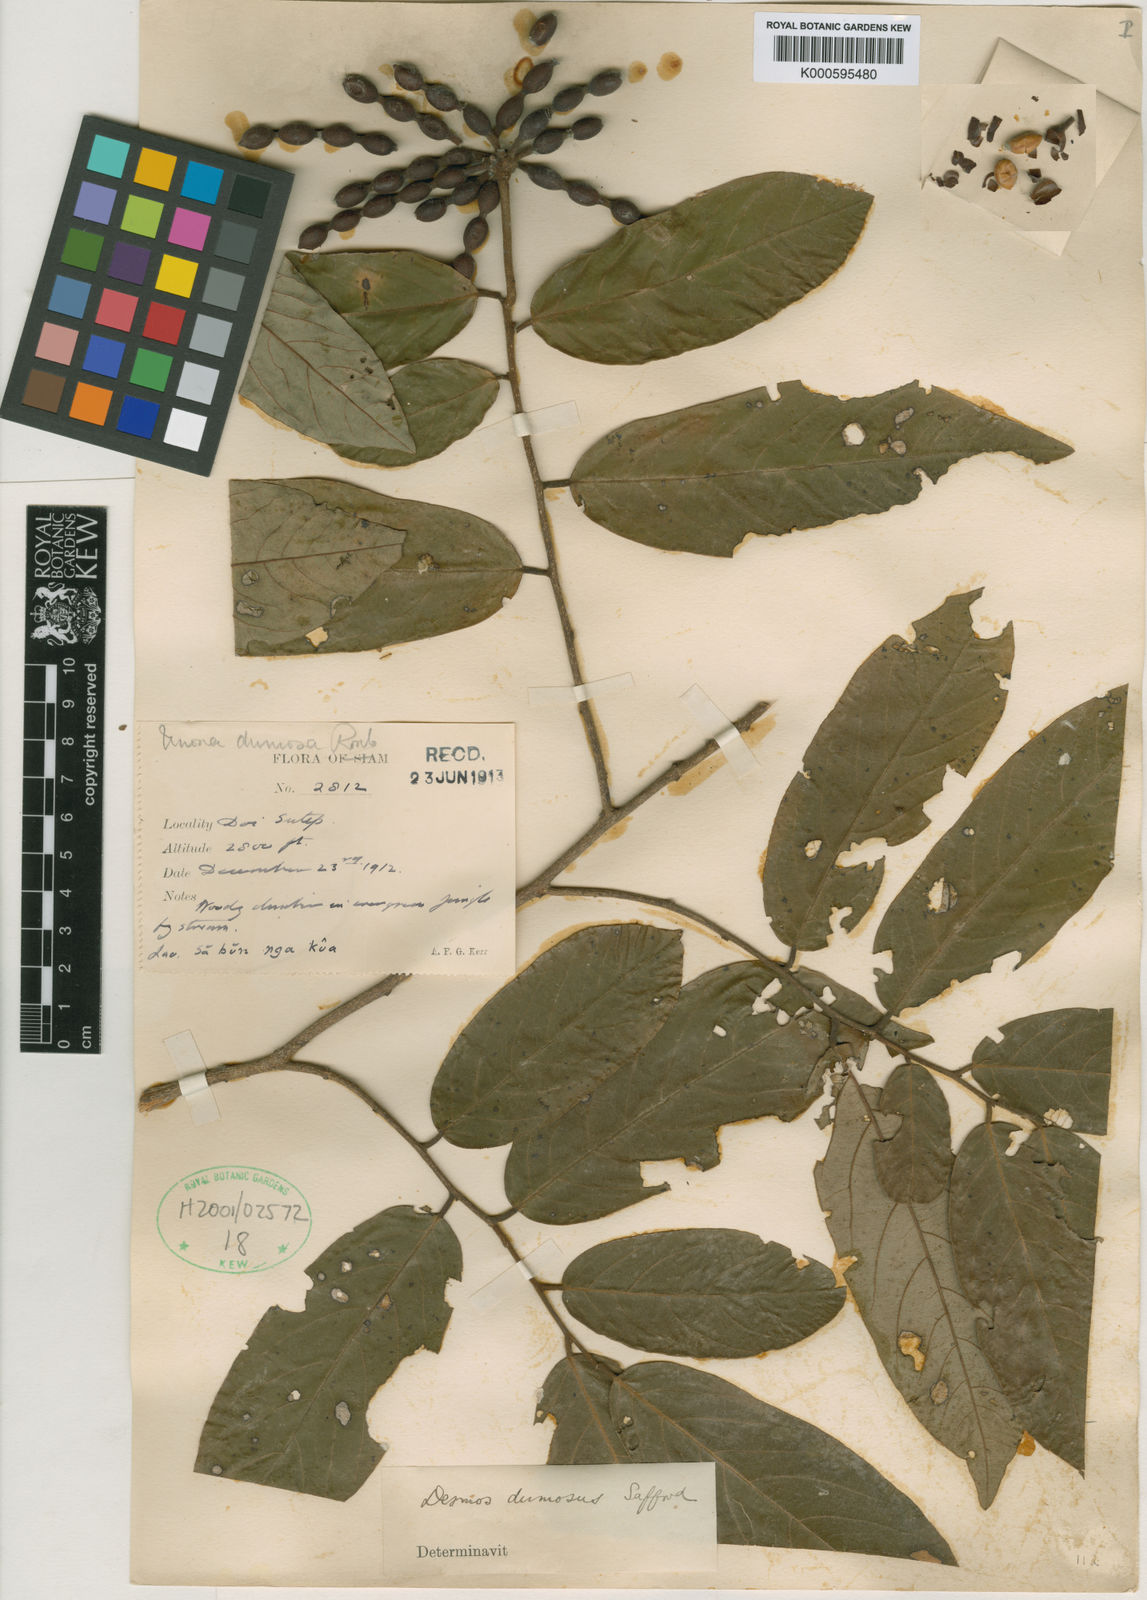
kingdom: Plantae
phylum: Tracheophyta
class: Magnoliopsida
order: Magnoliales
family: Annonaceae
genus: Desmos
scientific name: Desmos dumosus
